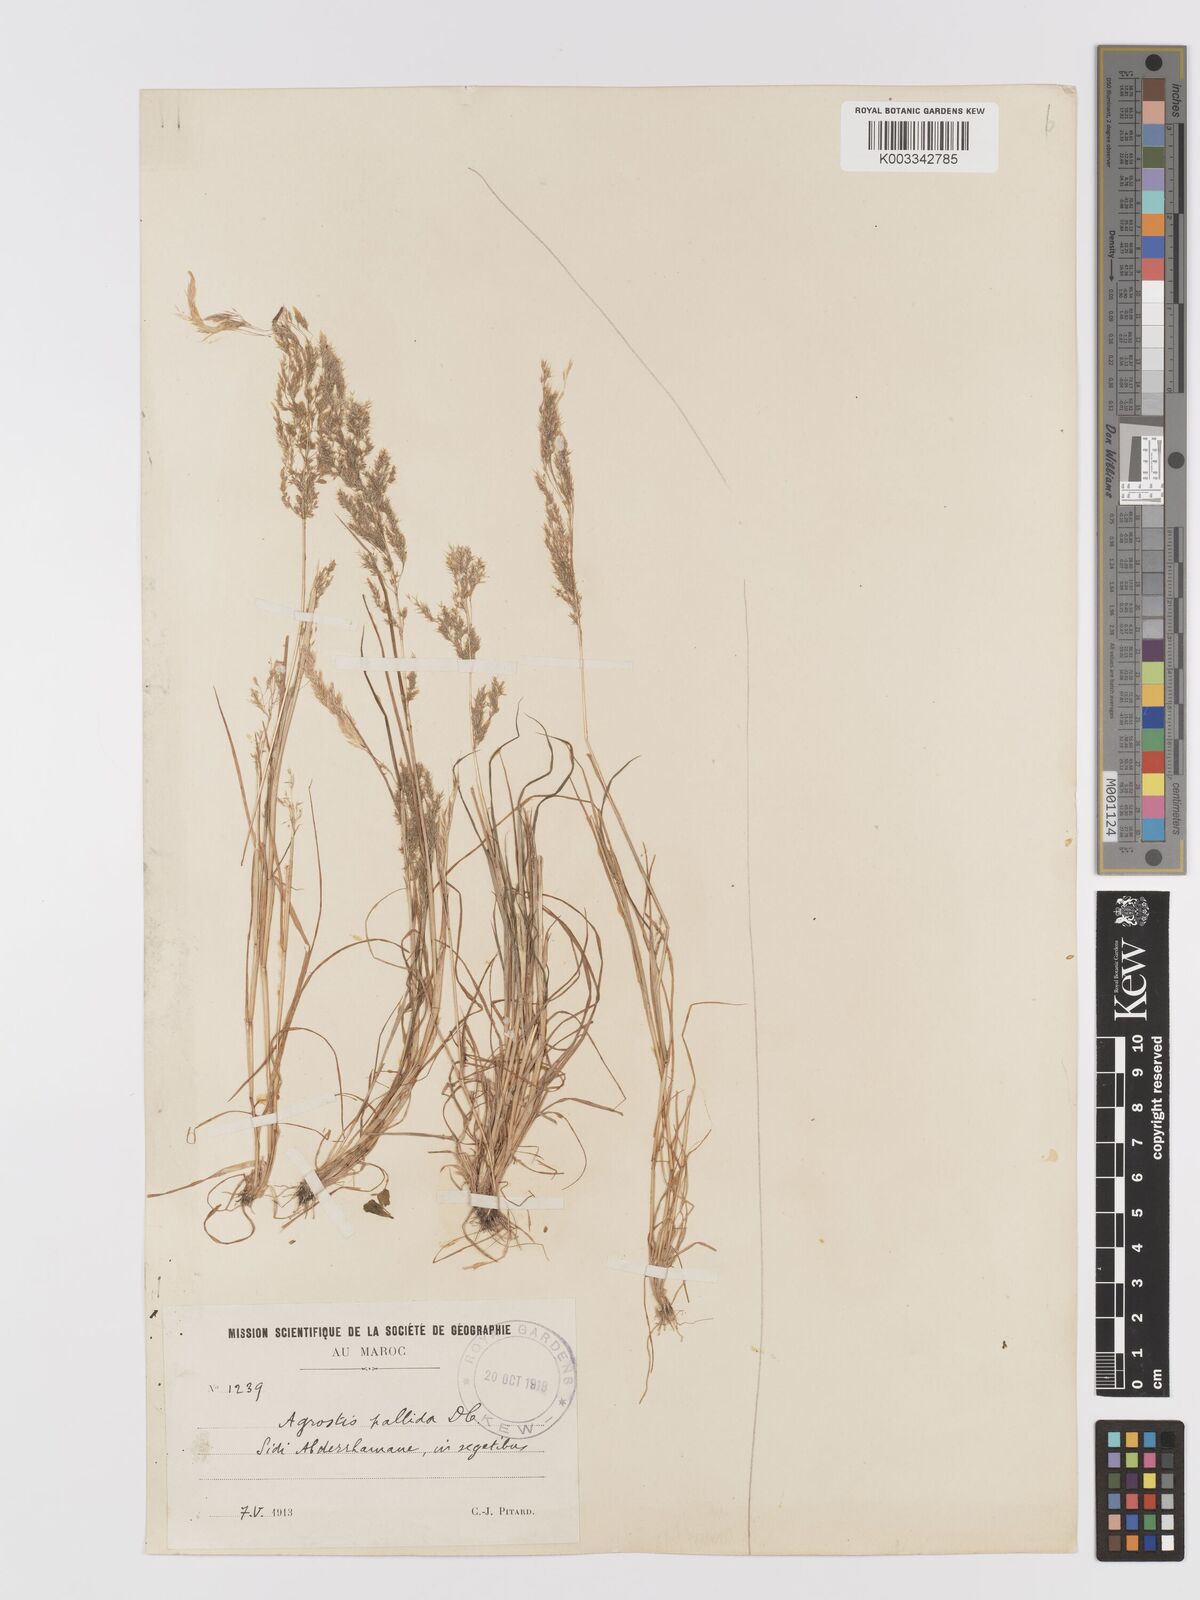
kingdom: Plantae
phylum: Tracheophyta
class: Liliopsida
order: Poales
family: Poaceae
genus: Agrostis
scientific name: Agrostis pourretii
